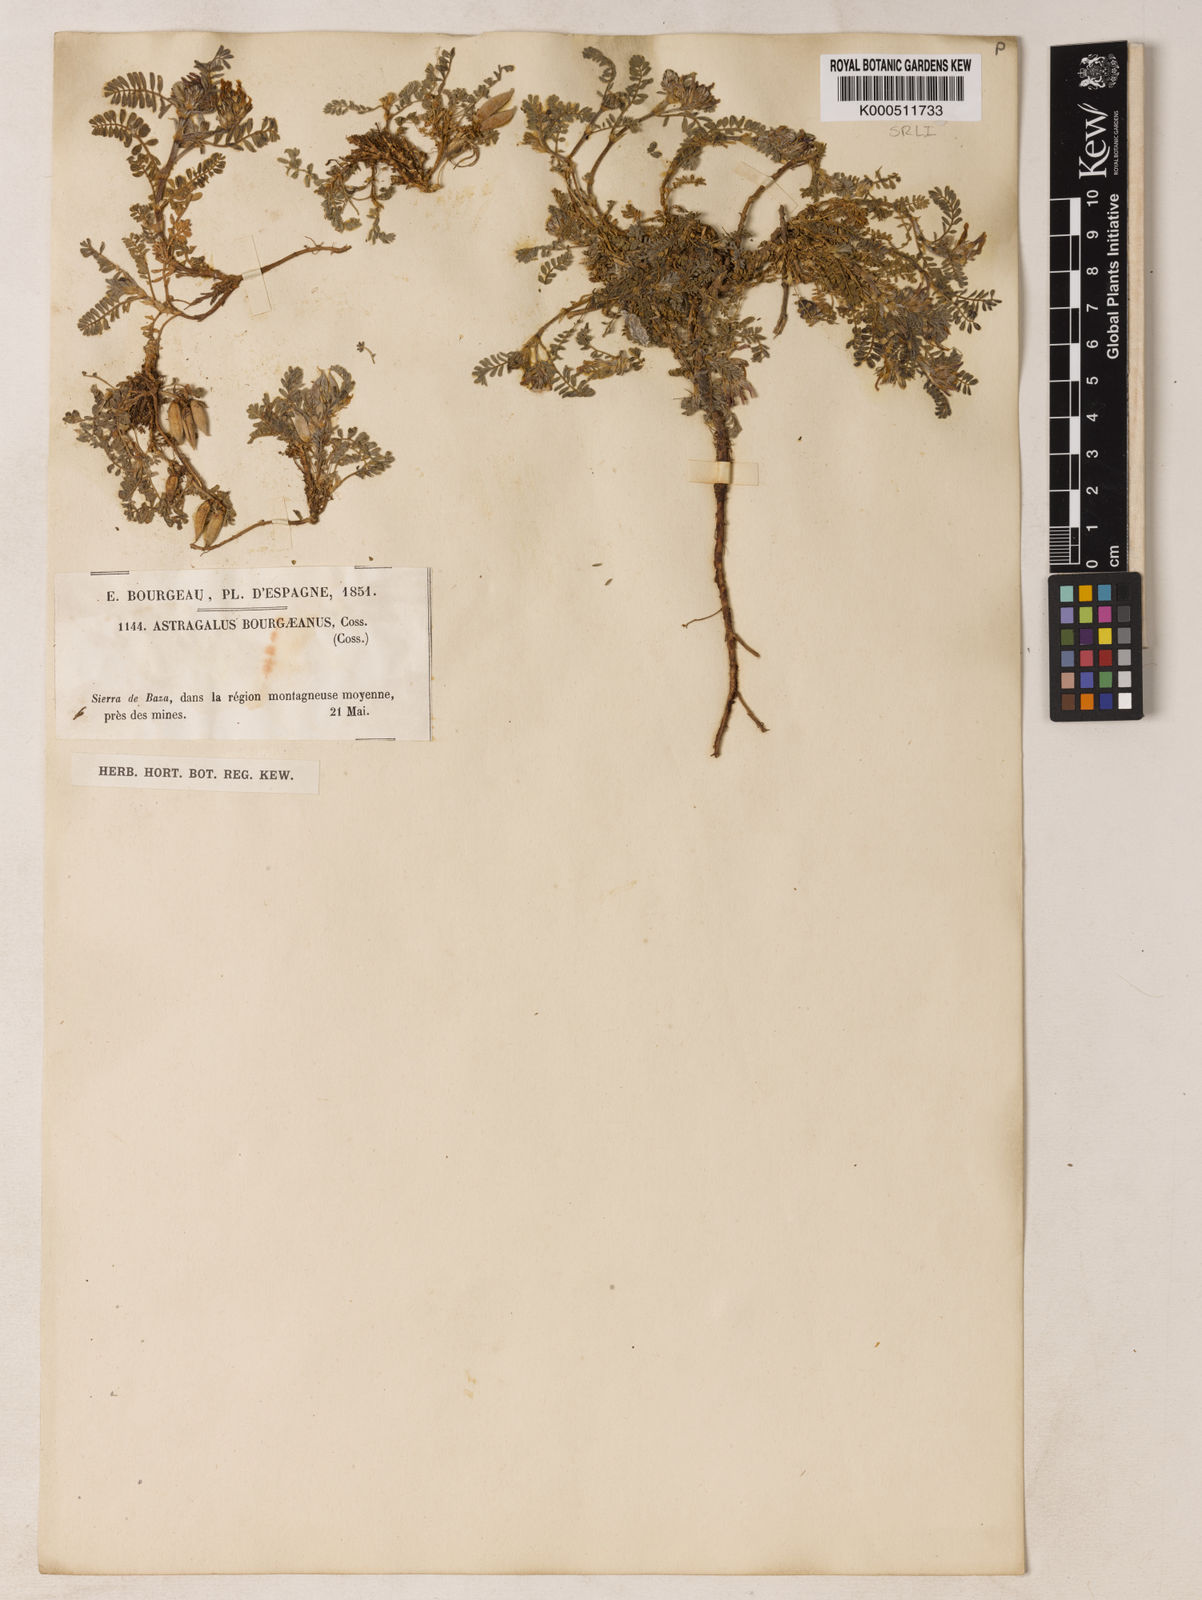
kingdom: Plantae
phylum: Tracheophyta
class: Magnoliopsida
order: Fabales
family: Fabaceae
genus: Astragalus
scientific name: Astragalus bourgaeanus
